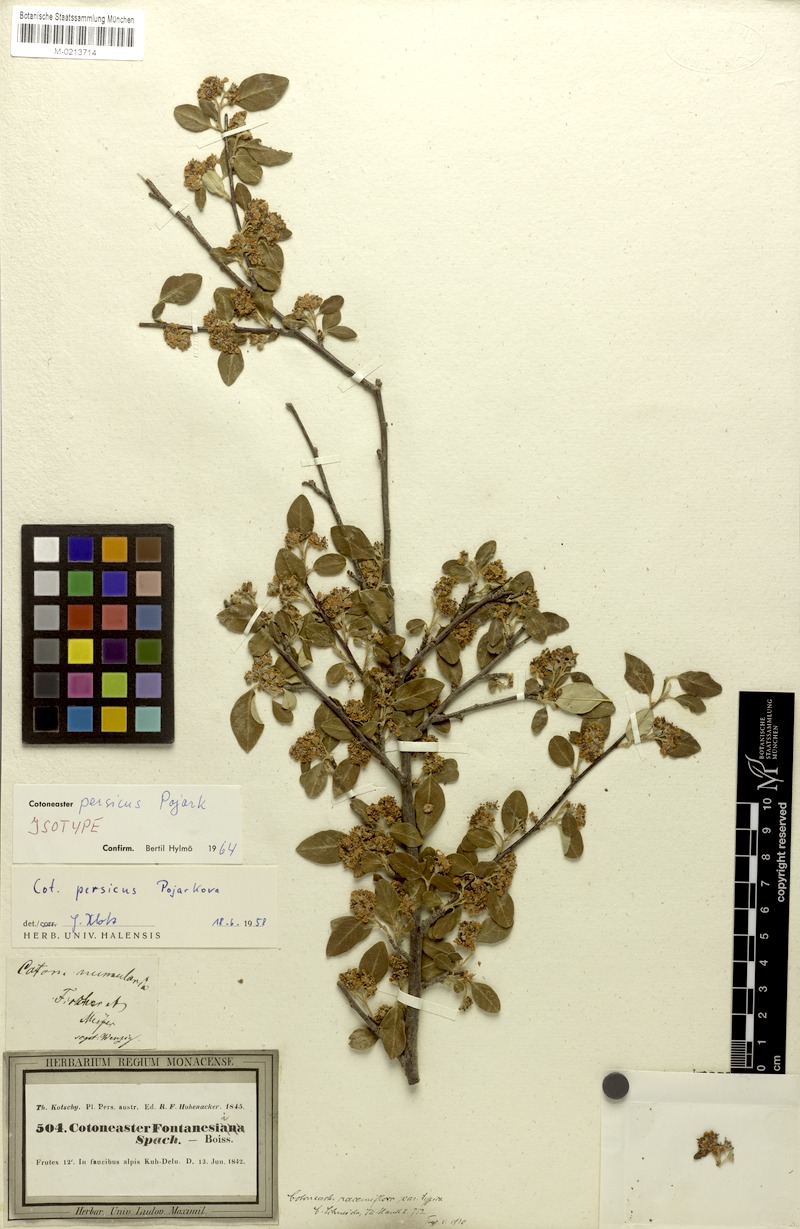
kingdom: Plantae
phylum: Tracheophyta
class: Magnoliopsida
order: Rosales
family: Rosaceae
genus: Cotoneaster
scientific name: Cotoneaster persicus
